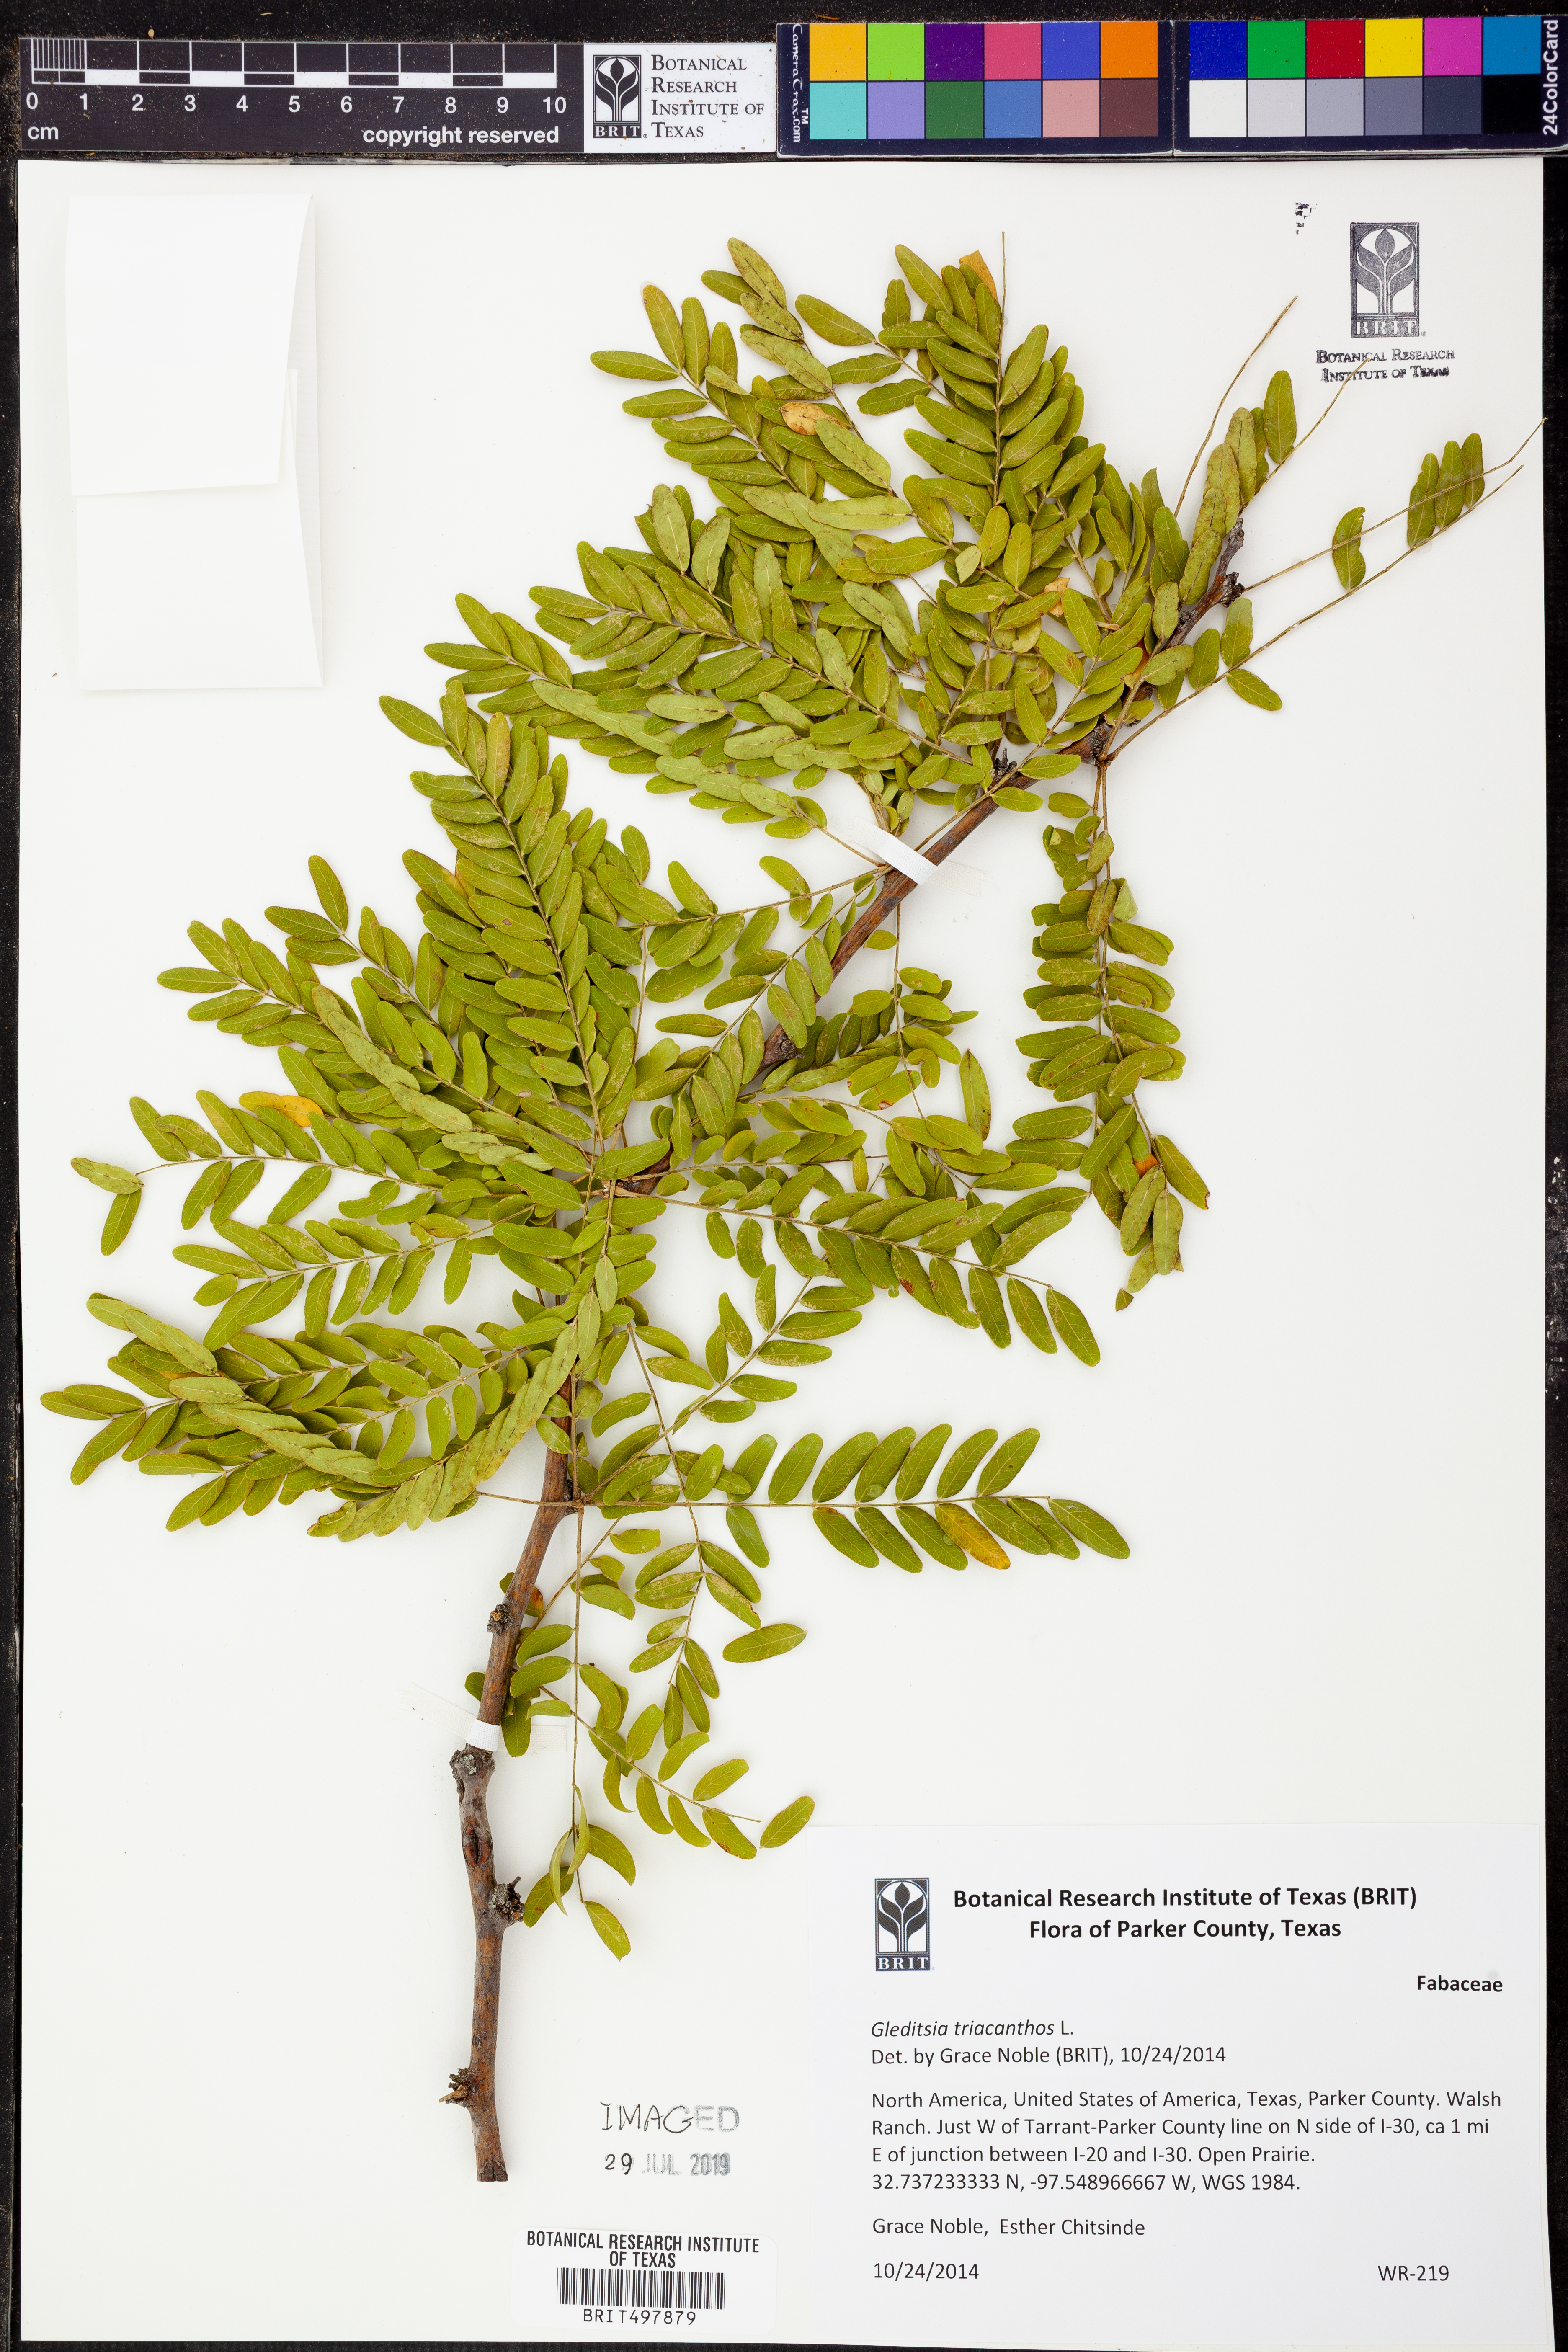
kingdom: Plantae
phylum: Tracheophyta
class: Magnoliopsida
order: Fabales
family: Fabaceae
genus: Gleditsia
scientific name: Gleditsia triacanthos
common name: Common honeylocust
